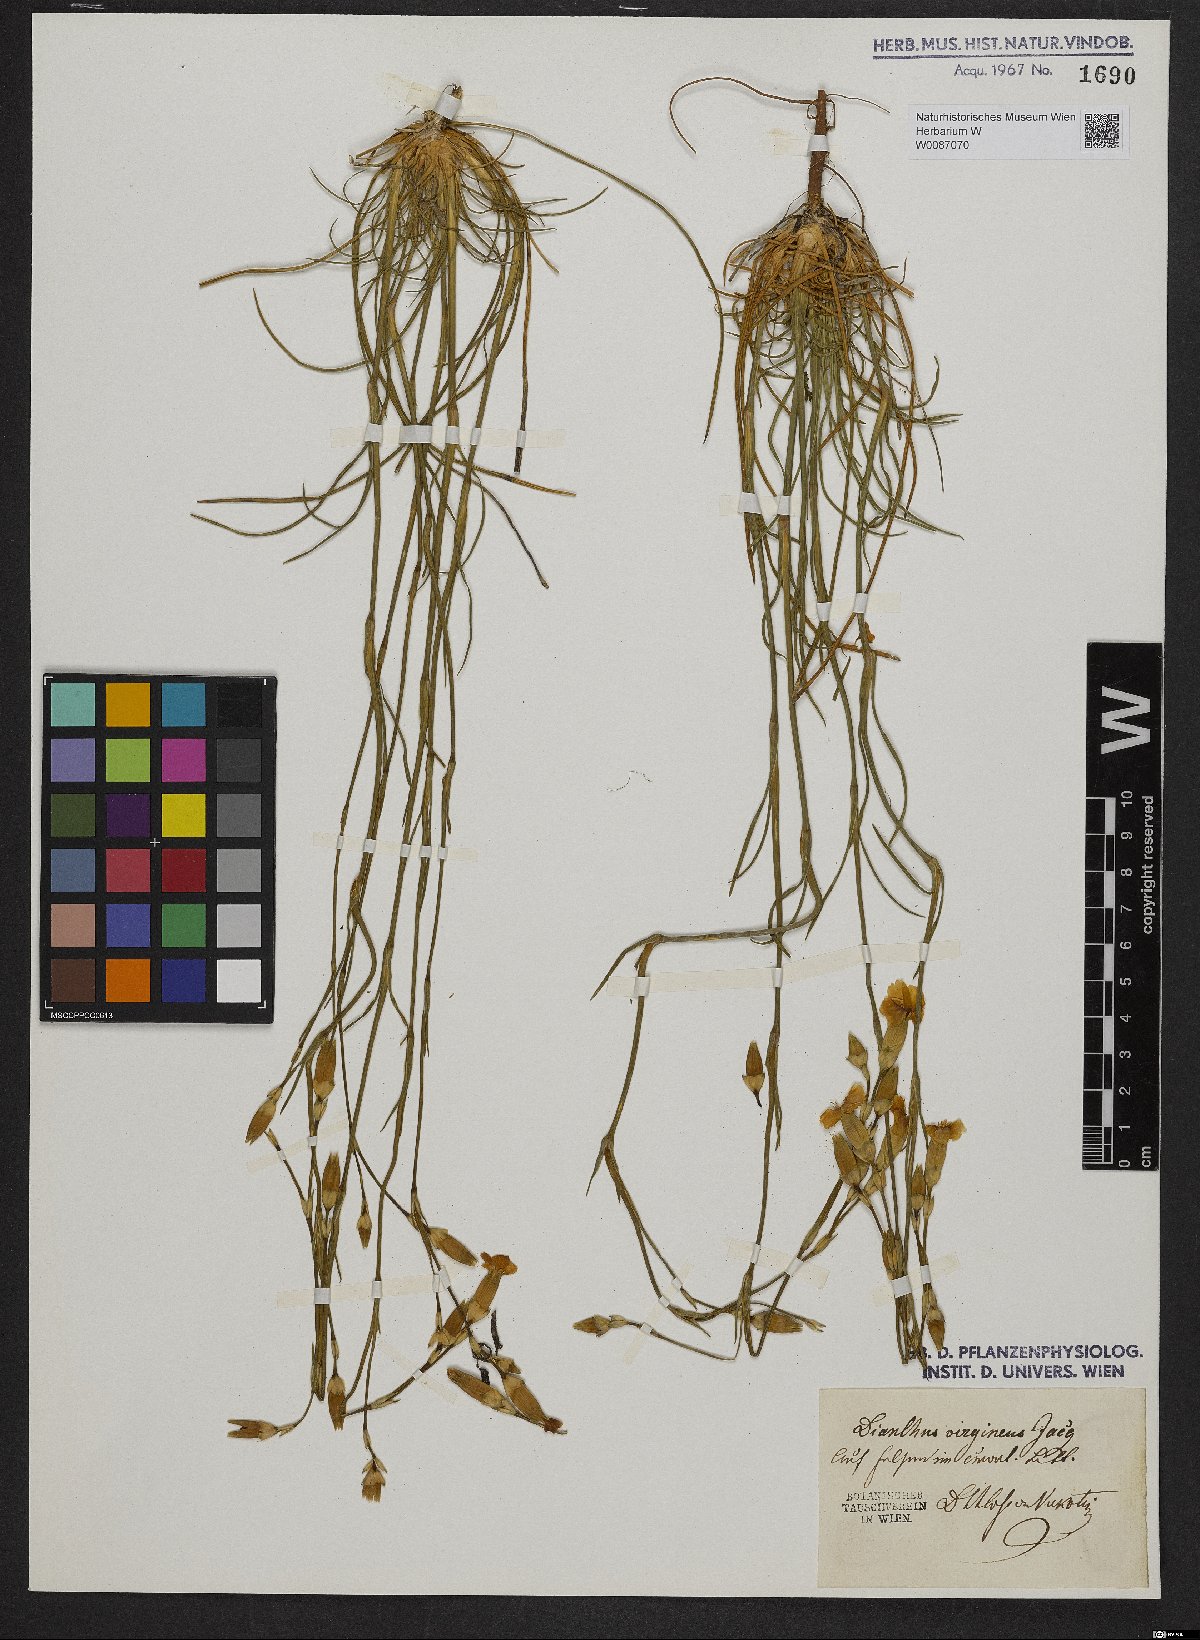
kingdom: Plantae
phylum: Tracheophyta
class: Magnoliopsida
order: Caryophyllales
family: Caryophyllaceae
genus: Dianthus
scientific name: Dianthus virgineus
